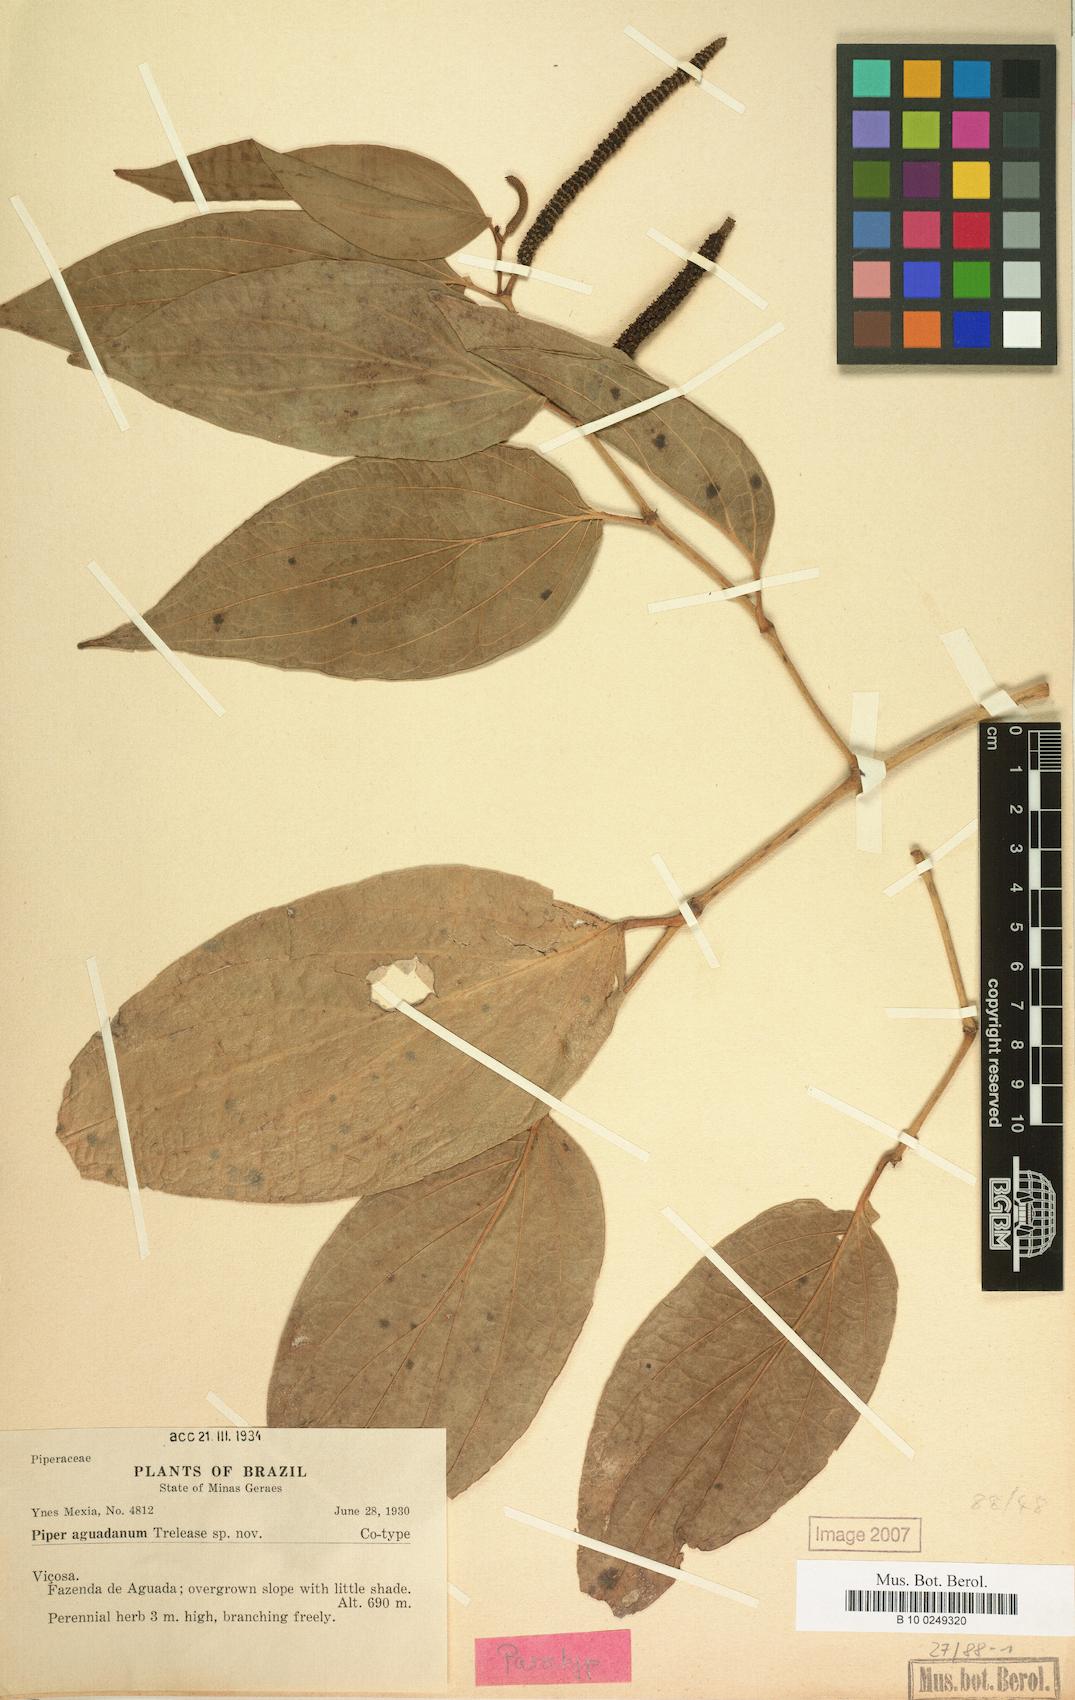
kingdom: Plantae
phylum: Tracheophyta
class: Magnoliopsida
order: Piperales
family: Piperaceae
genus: Piper
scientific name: Piper stipulaceum
